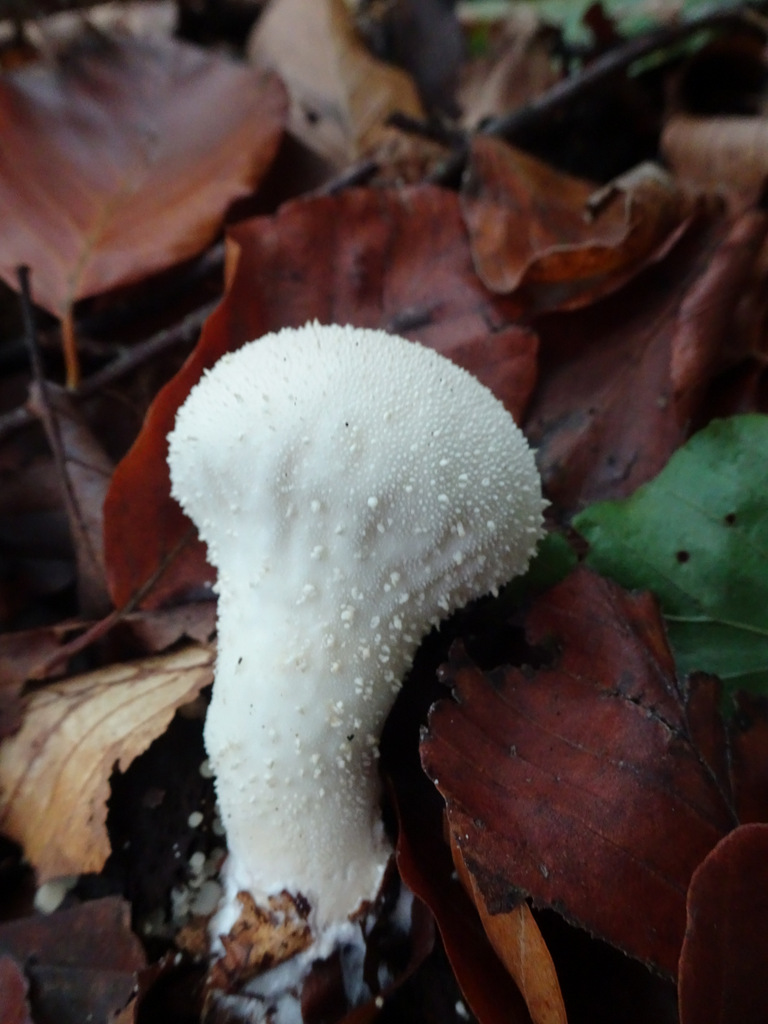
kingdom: Fungi
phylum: Basidiomycota
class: Agaricomycetes
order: Agaricales
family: Lycoperdaceae
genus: Lycoperdon
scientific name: Lycoperdon perlatum
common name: krystal-støvbold
